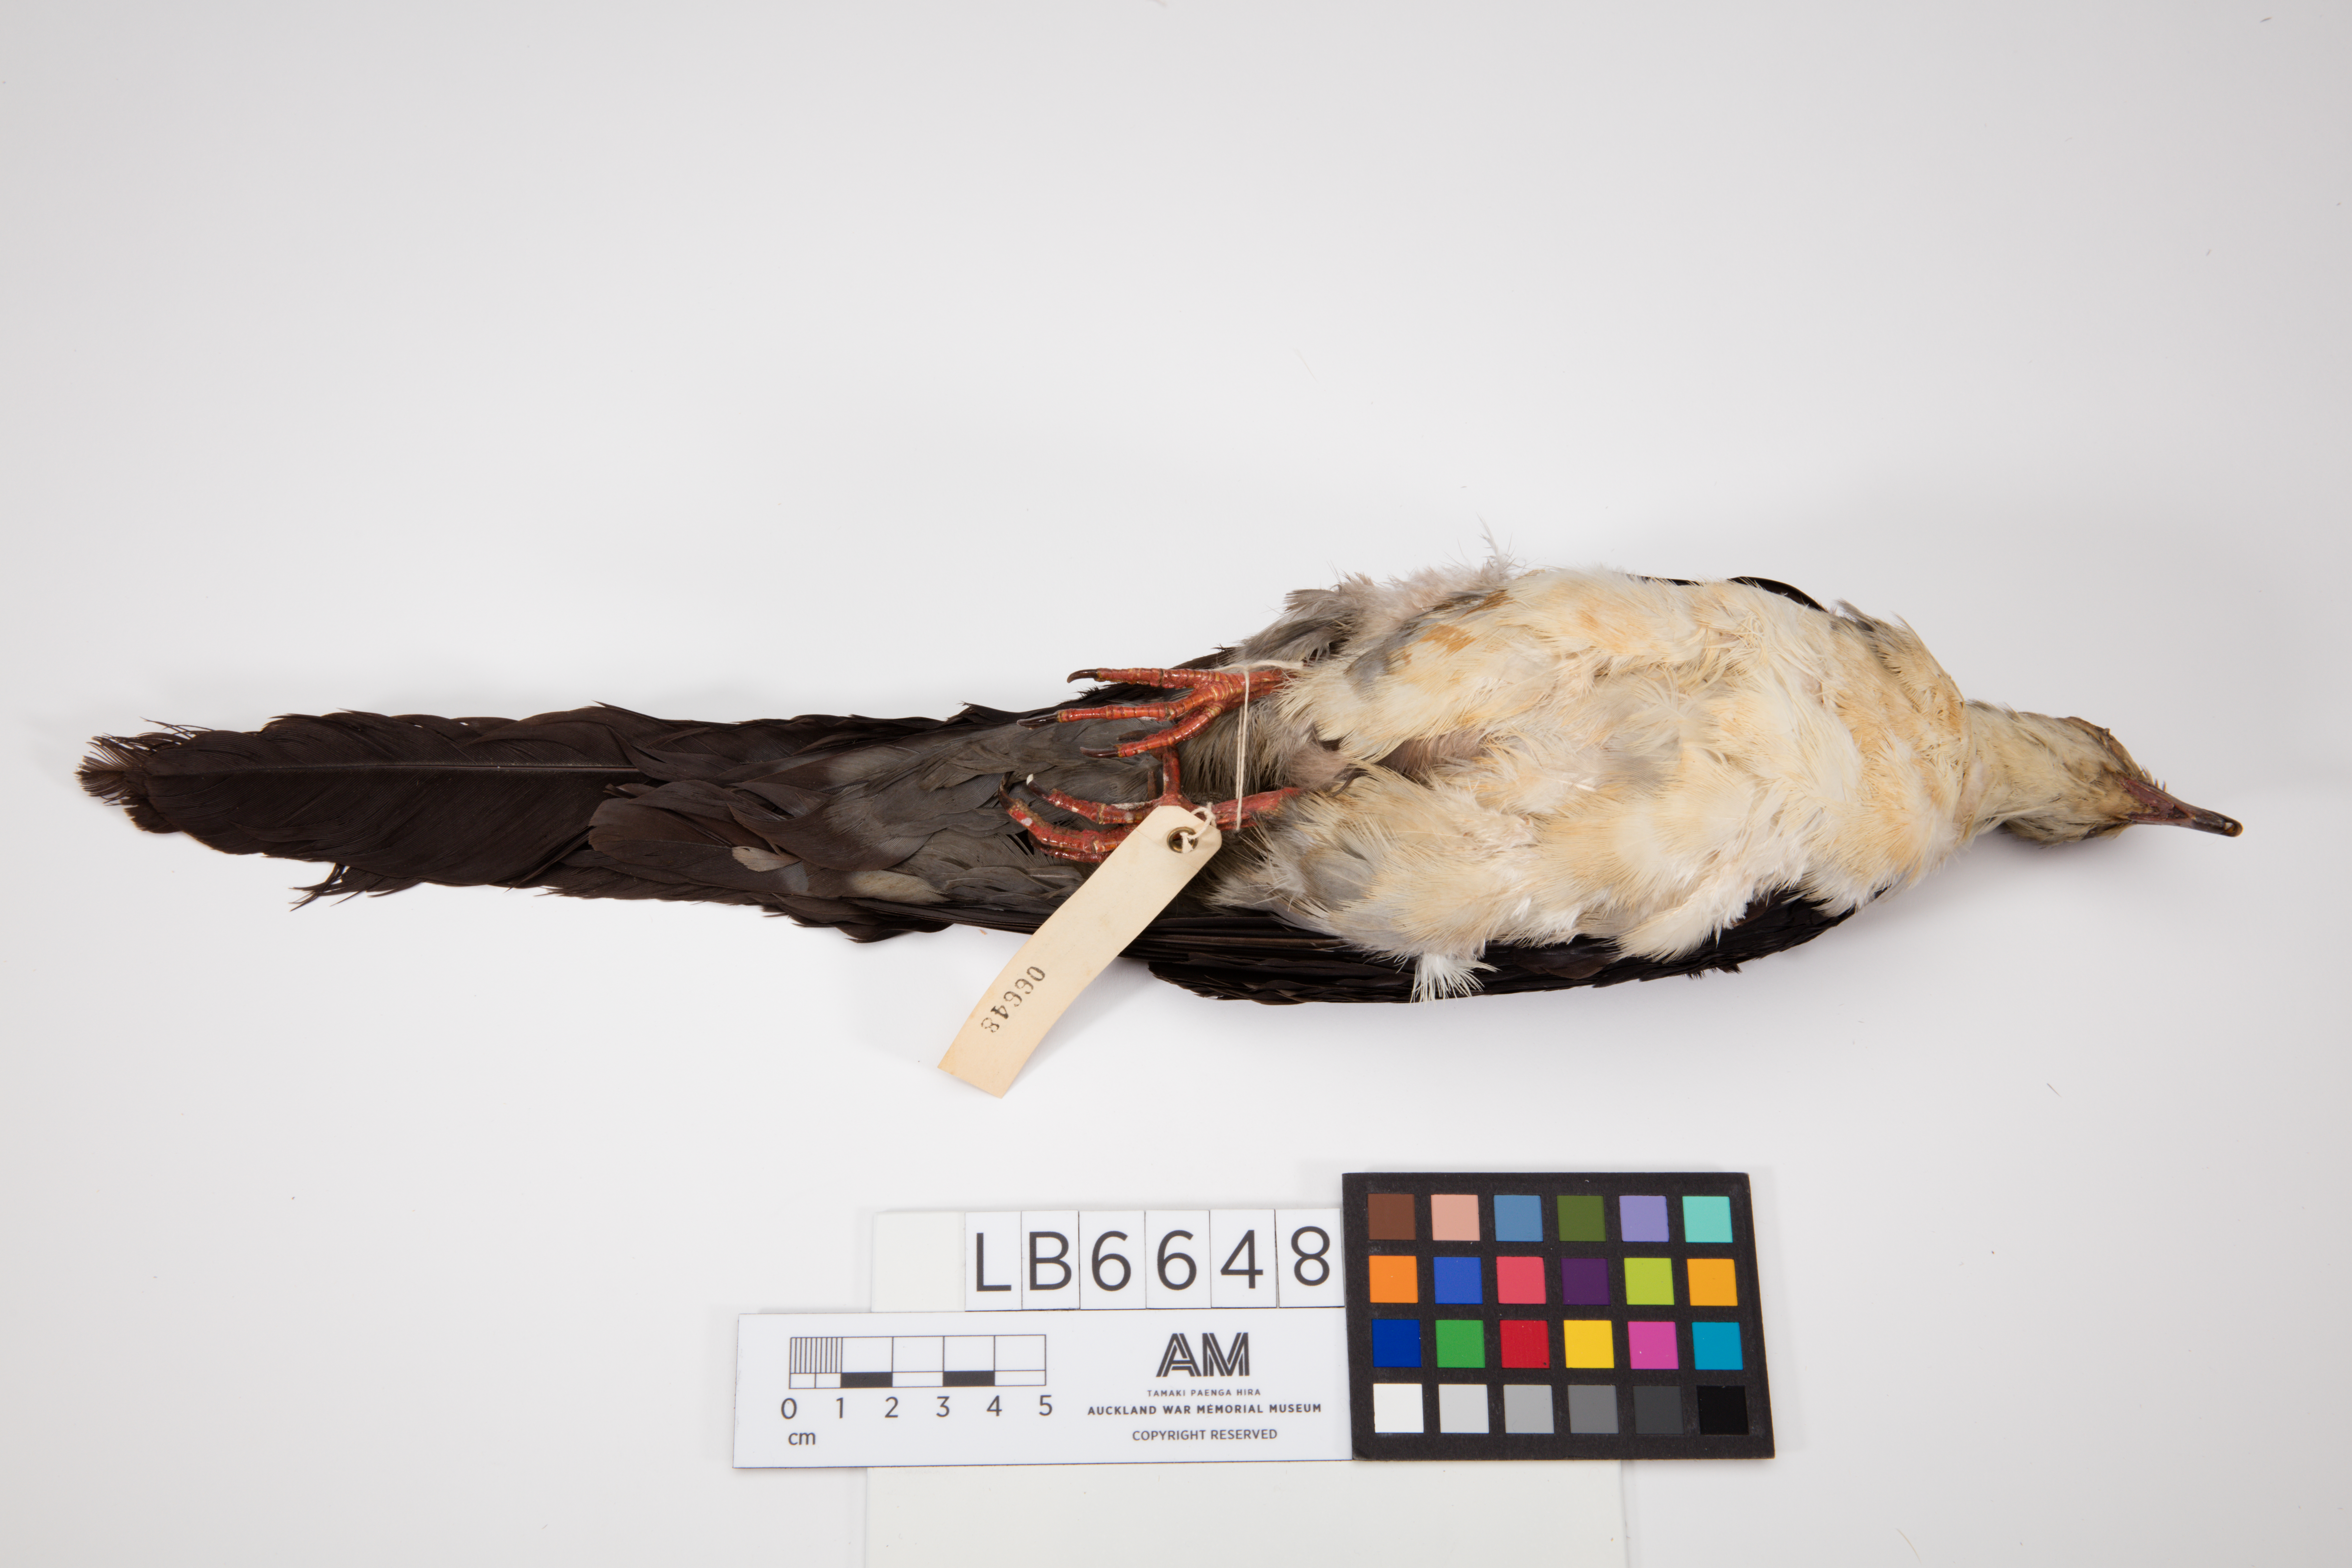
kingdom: Animalia
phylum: Chordata
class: Aves
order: Columbiformes
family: Columbidae
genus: Reinwardtoena
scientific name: Reinwardtoena browni
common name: Pied cuckoo-dove
